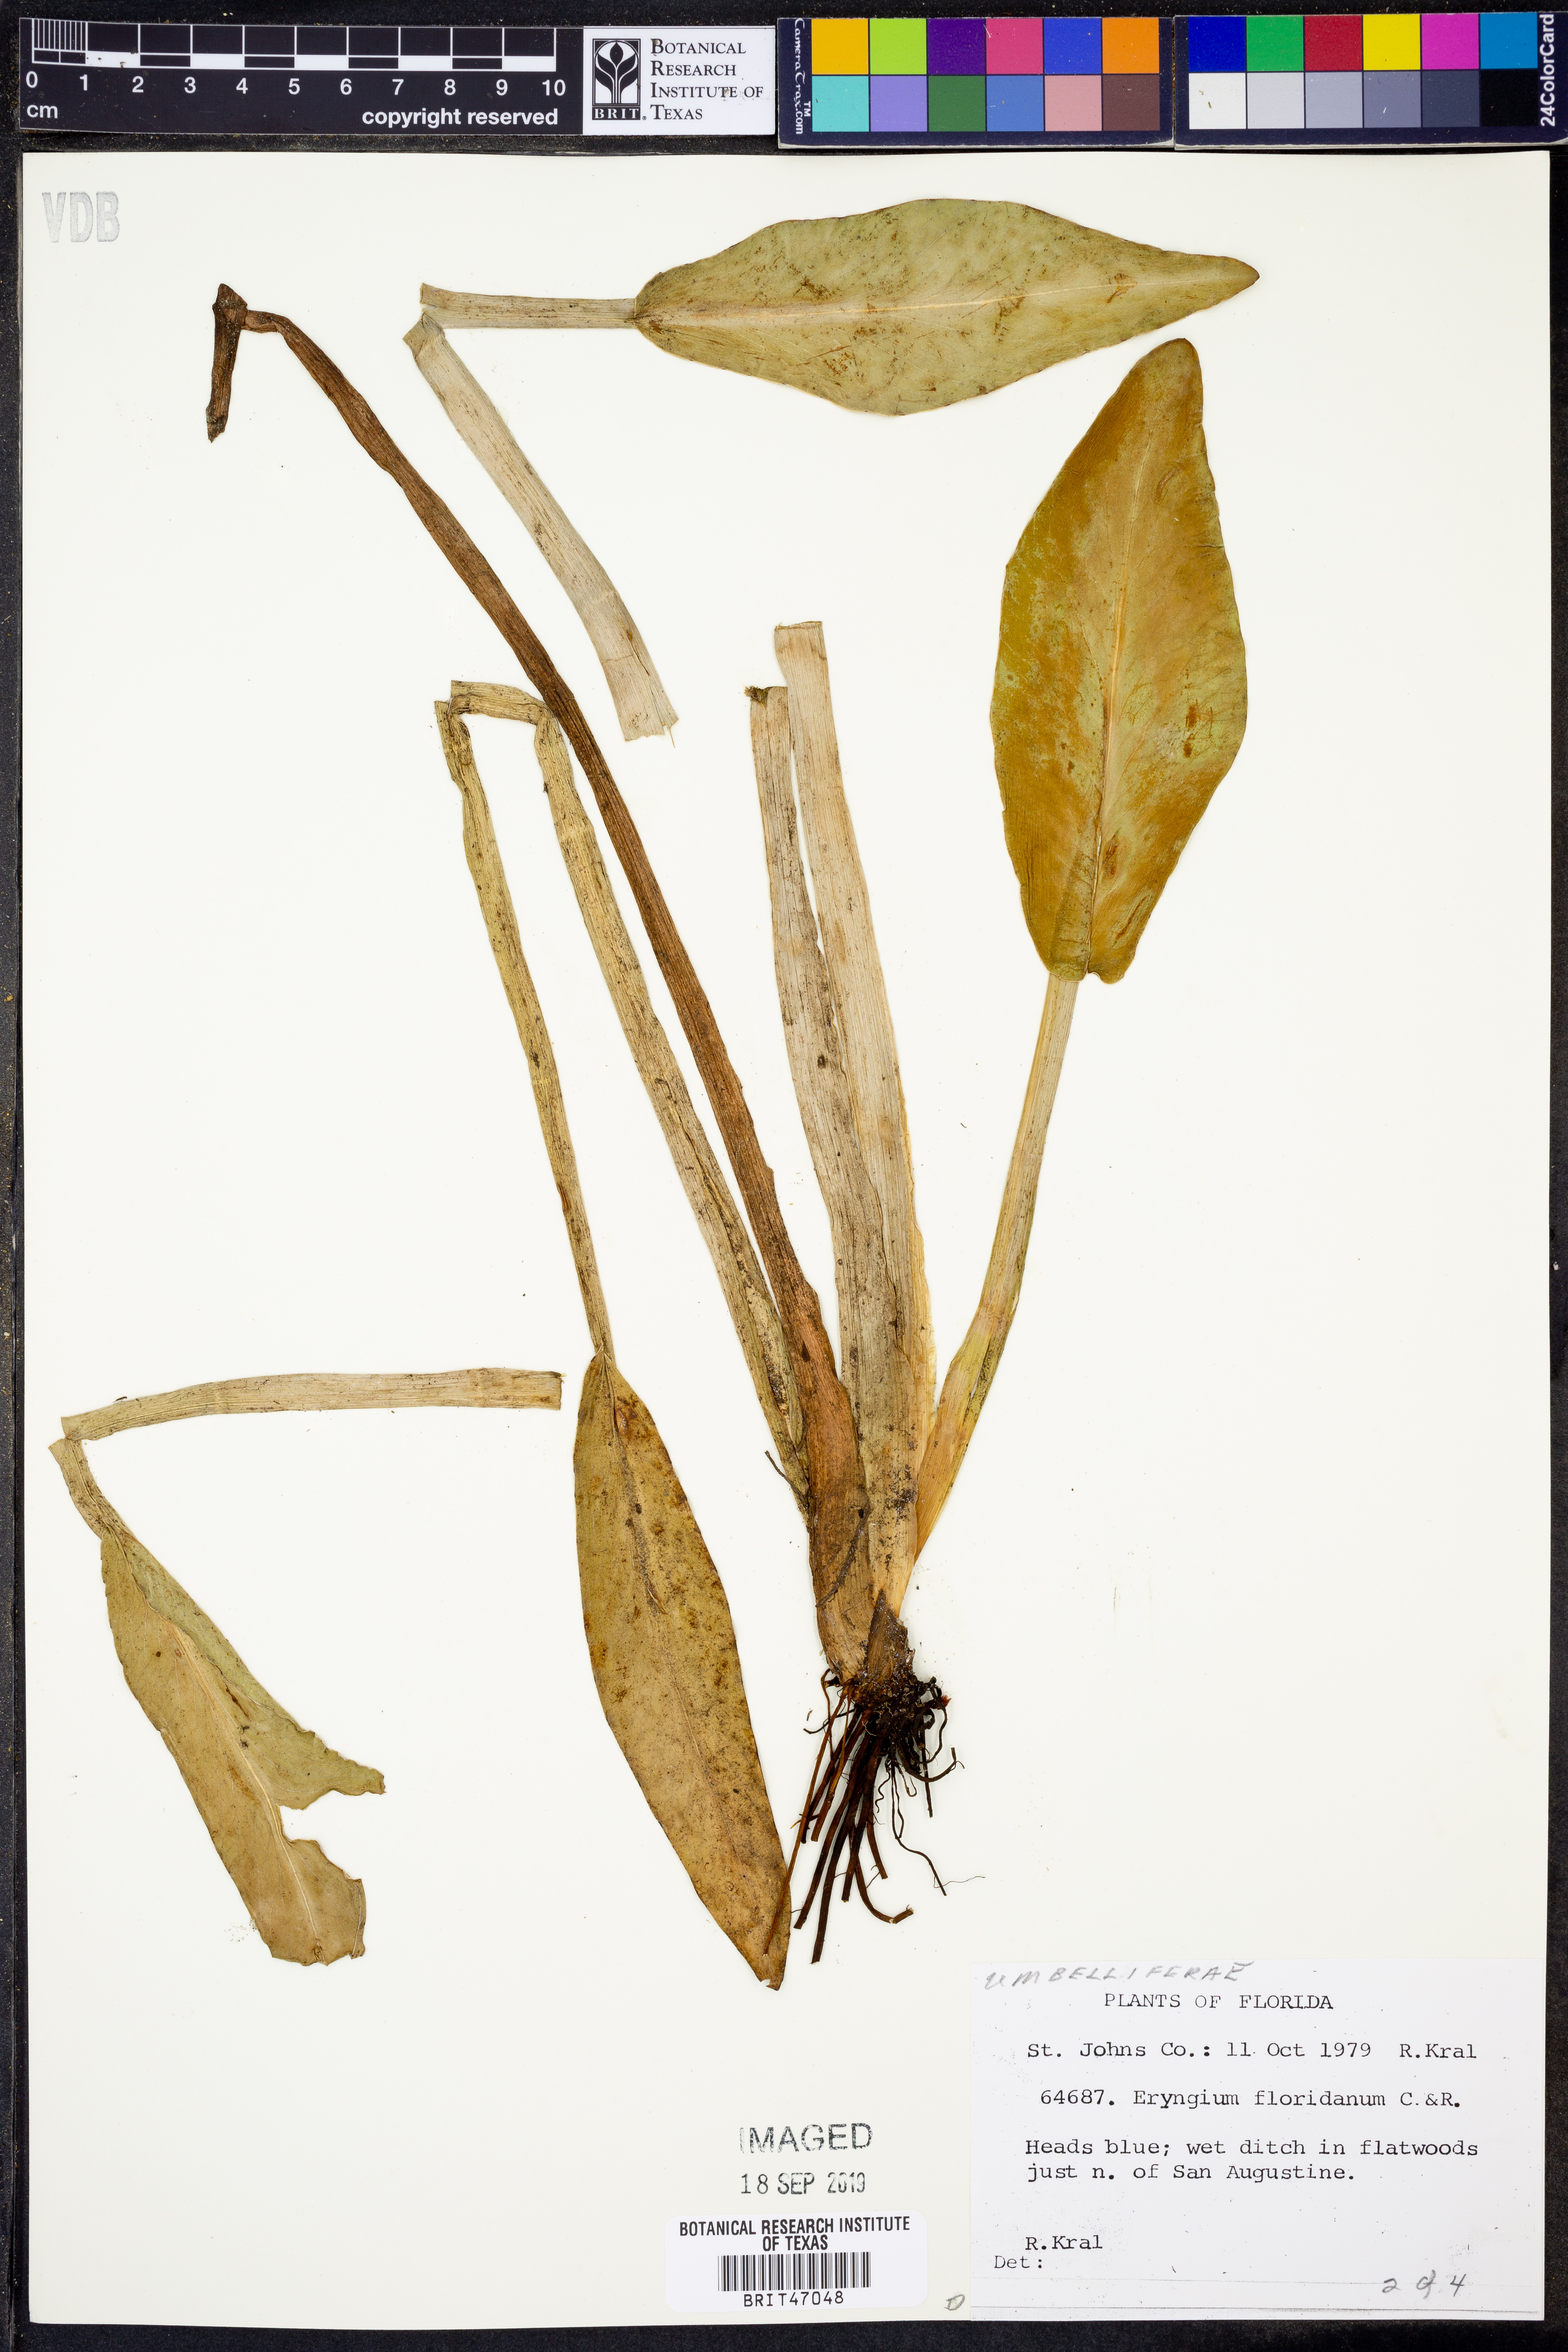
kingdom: Plantae
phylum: Tracheophyta
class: Magnoliopsida
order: Apiales
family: Apiaceae
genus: Eryngium
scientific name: Eryngium aquaticum
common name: Water eryngo
